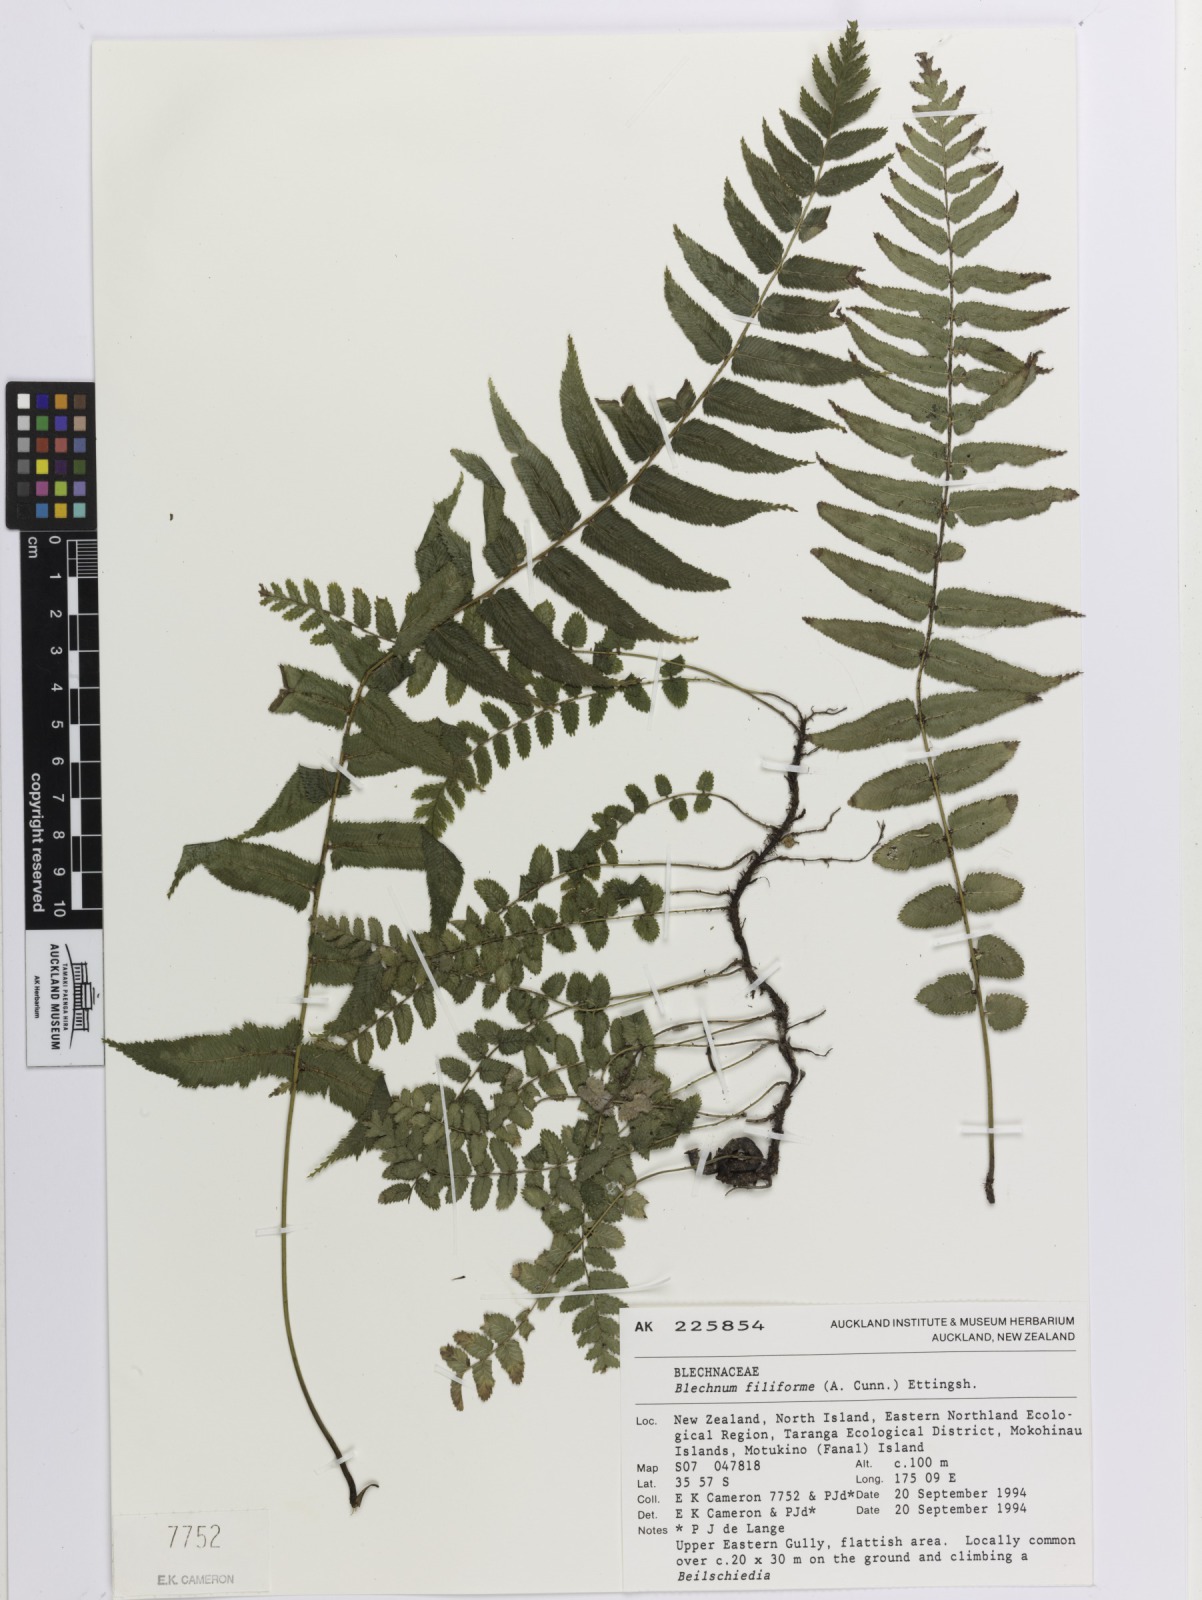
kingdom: Plantae
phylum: Tracheophyta
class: Polypodiopsida
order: Polypodiales
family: Blechnaceae
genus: Icarus
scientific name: Icarus filiformis
